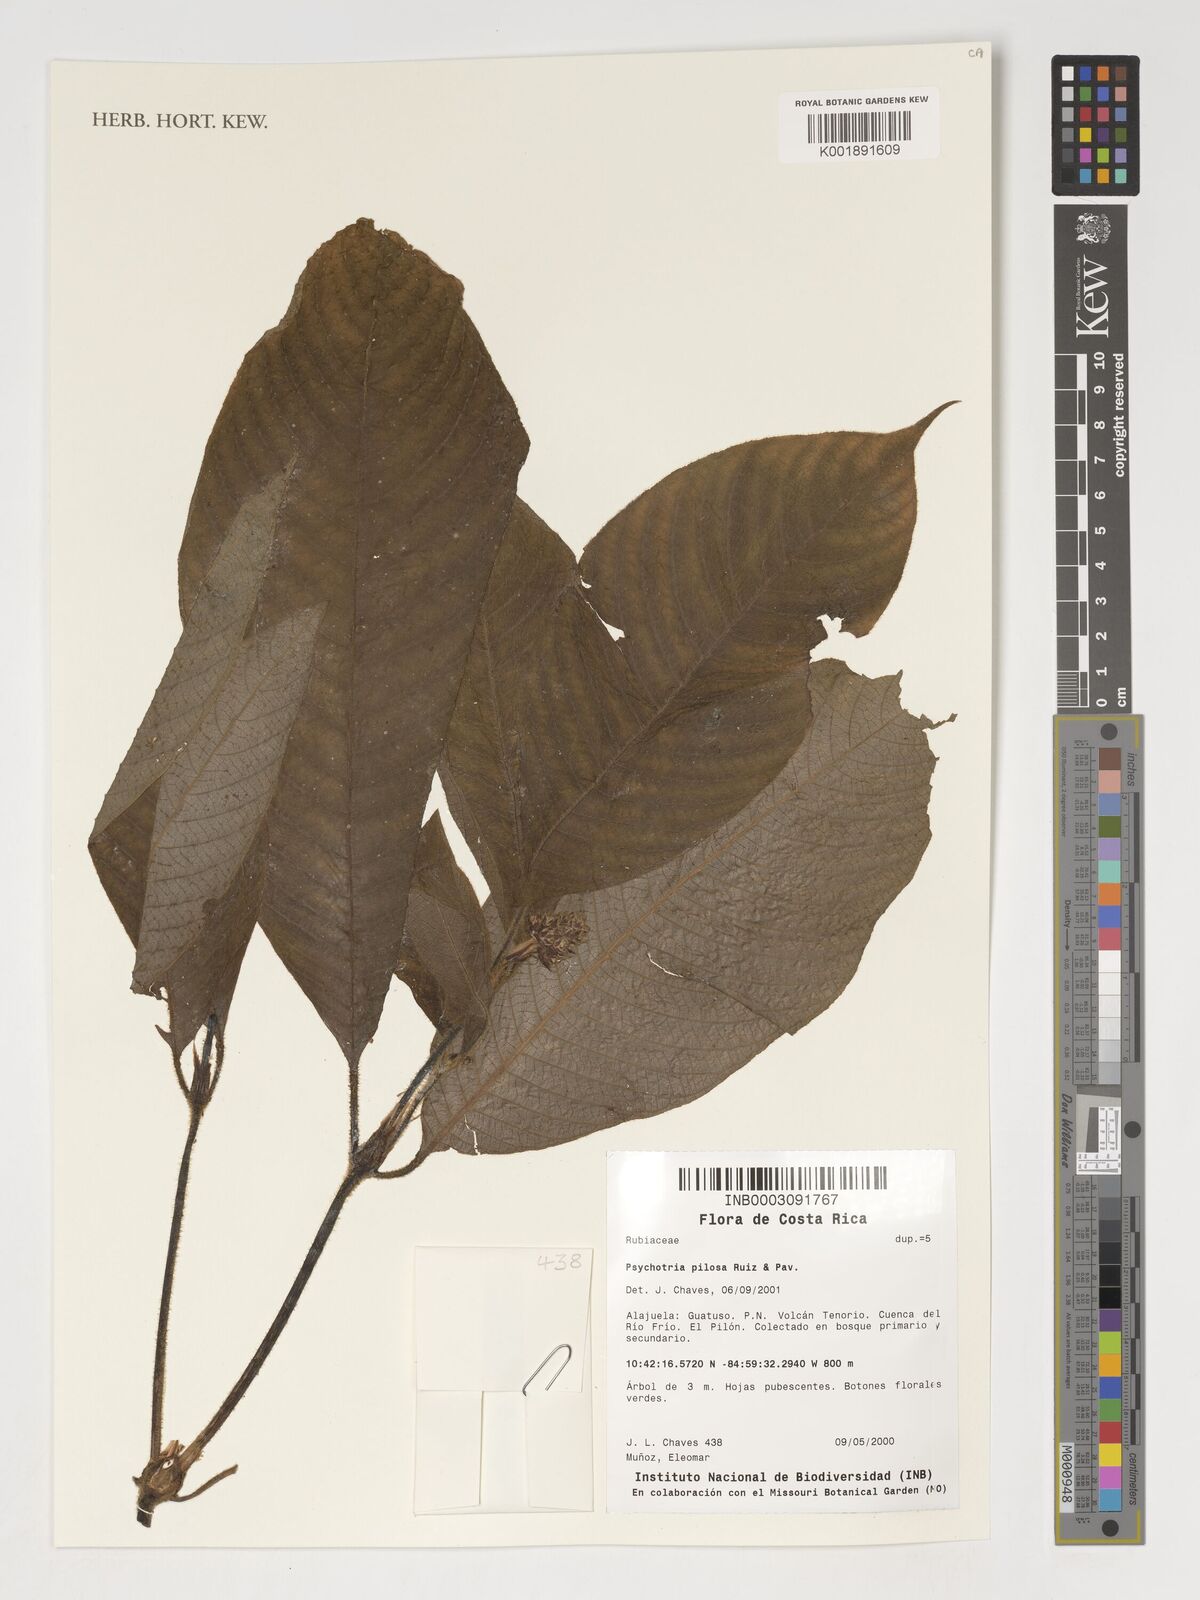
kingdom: Plantae
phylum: Tracheophyta
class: Magnoliopsida
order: Gentianales
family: Rubiaceae
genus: Palicourea
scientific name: Palicourea pilosa
